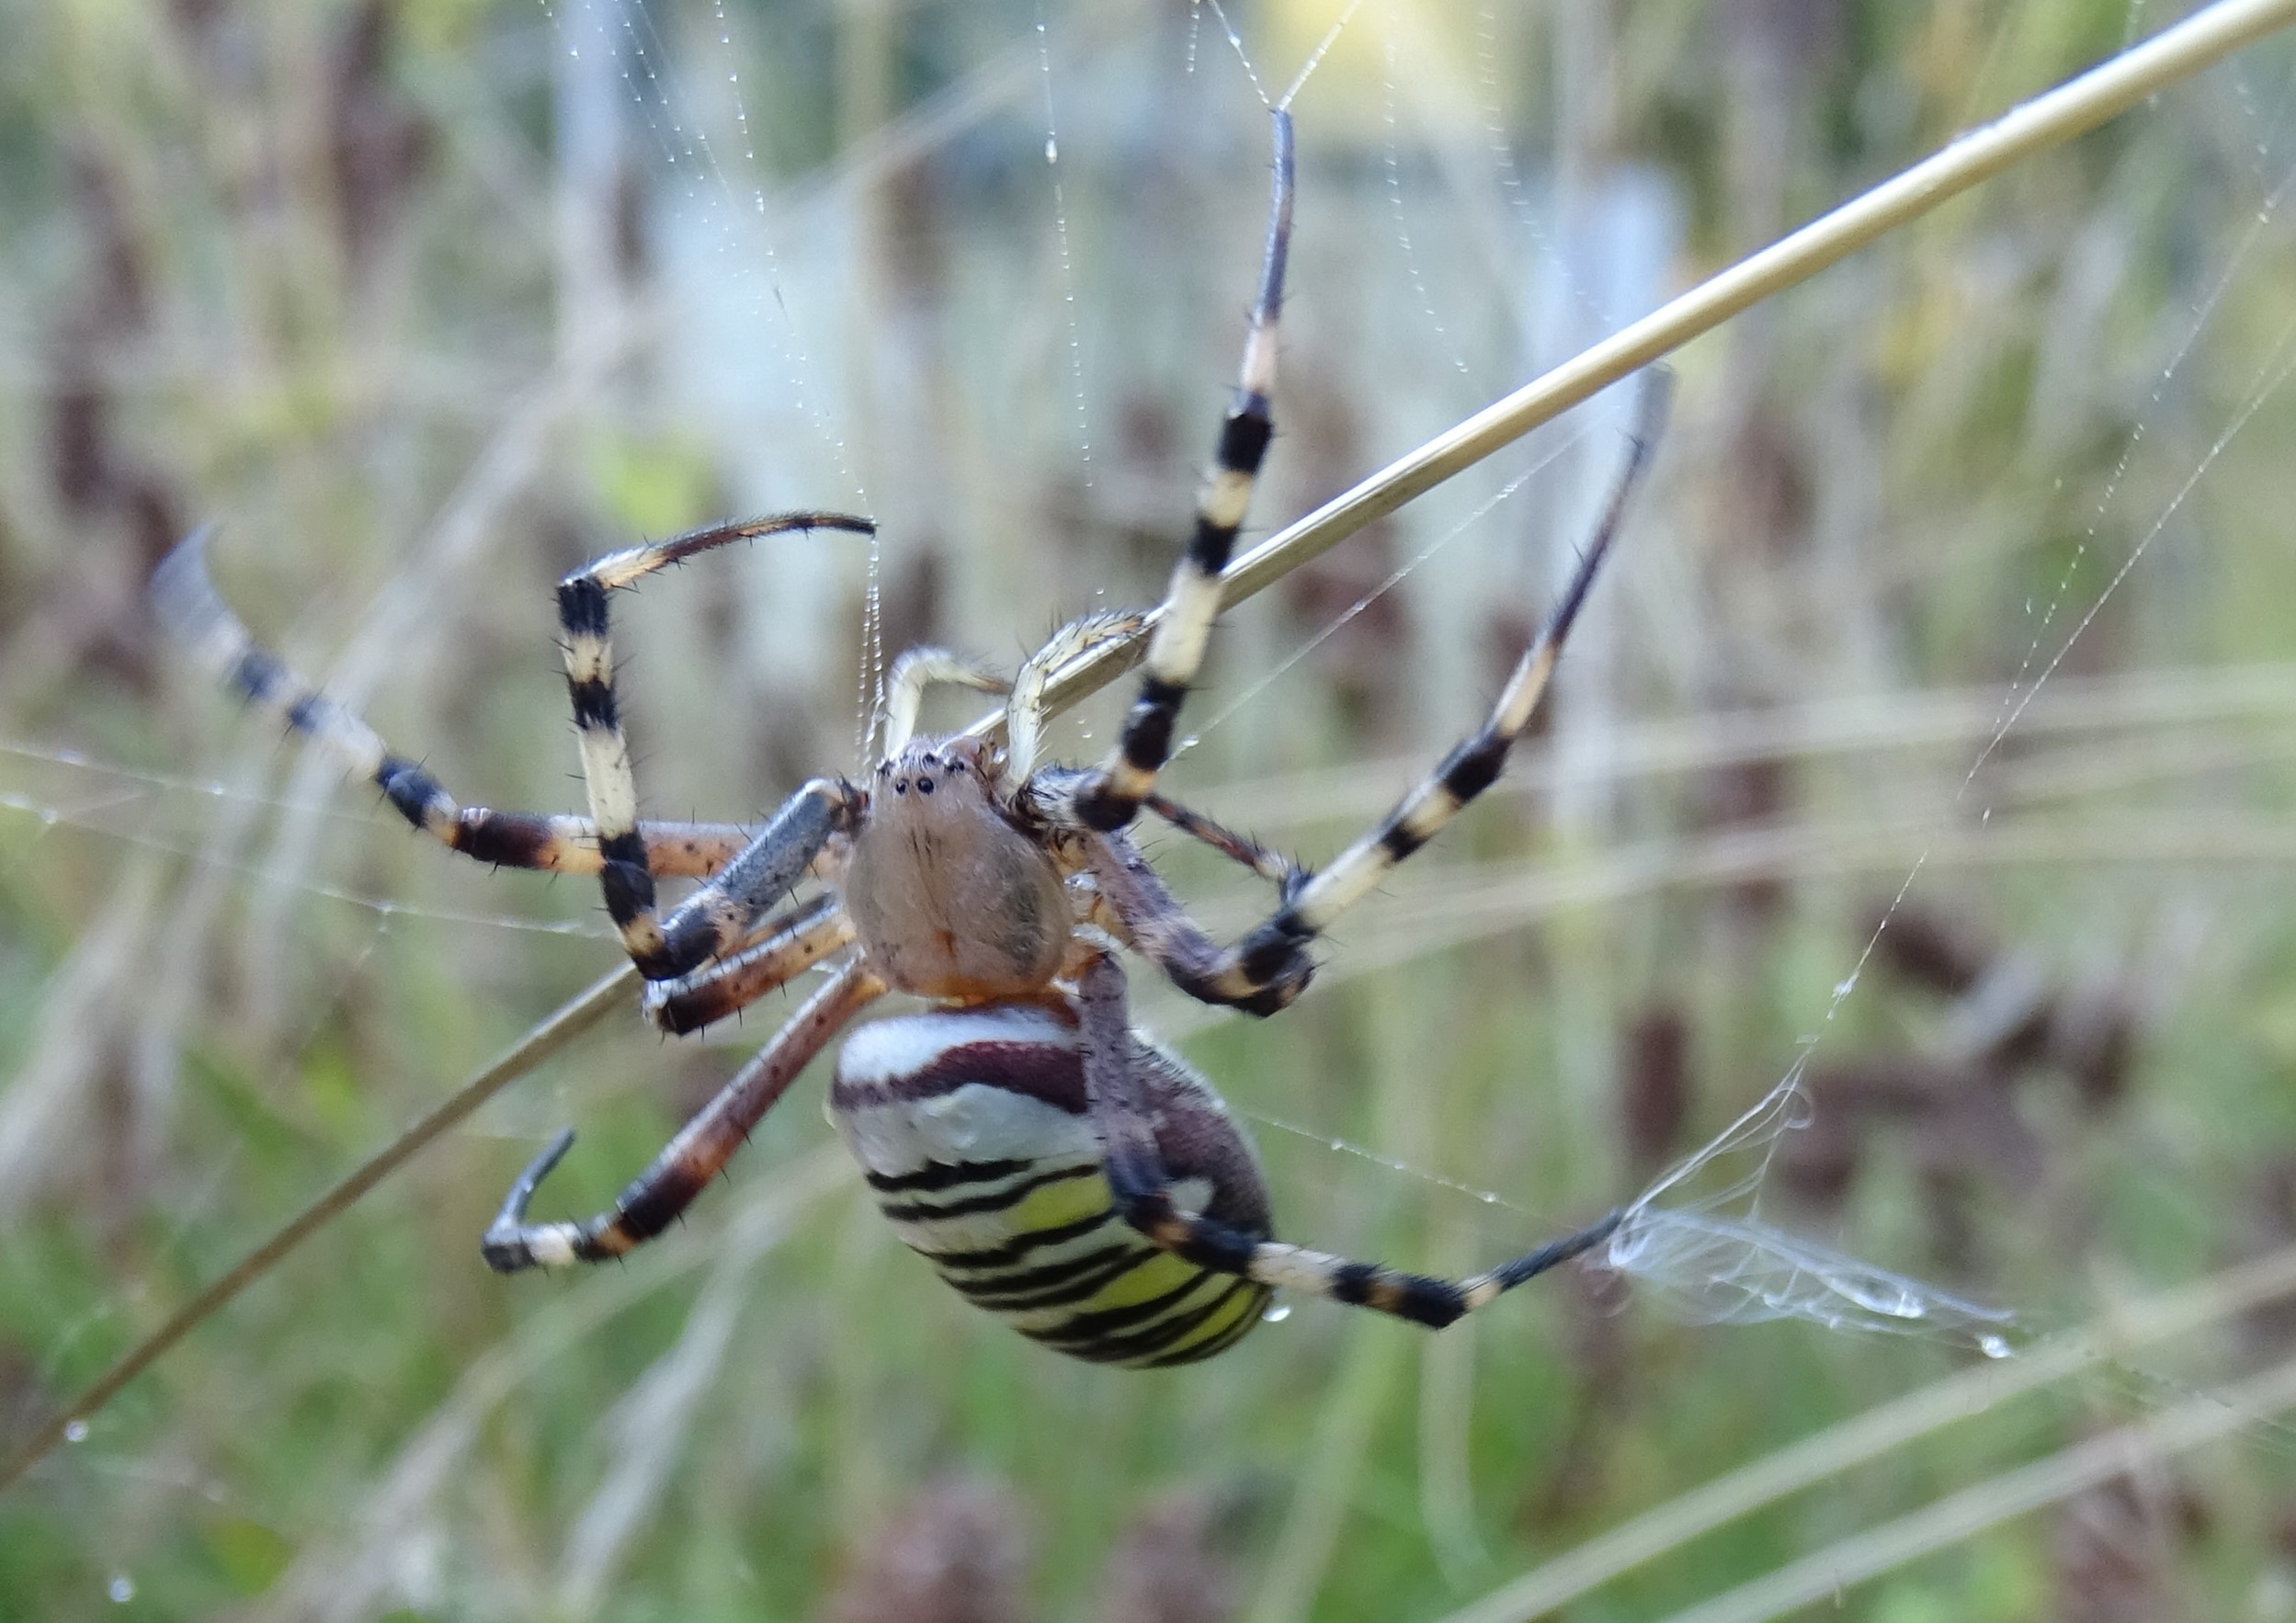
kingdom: Animalia
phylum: Arthropoda
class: Arachnida
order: Araneae
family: Araneidae
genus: Argiope
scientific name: Argiope bruennichi
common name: Hvepseedderkop
